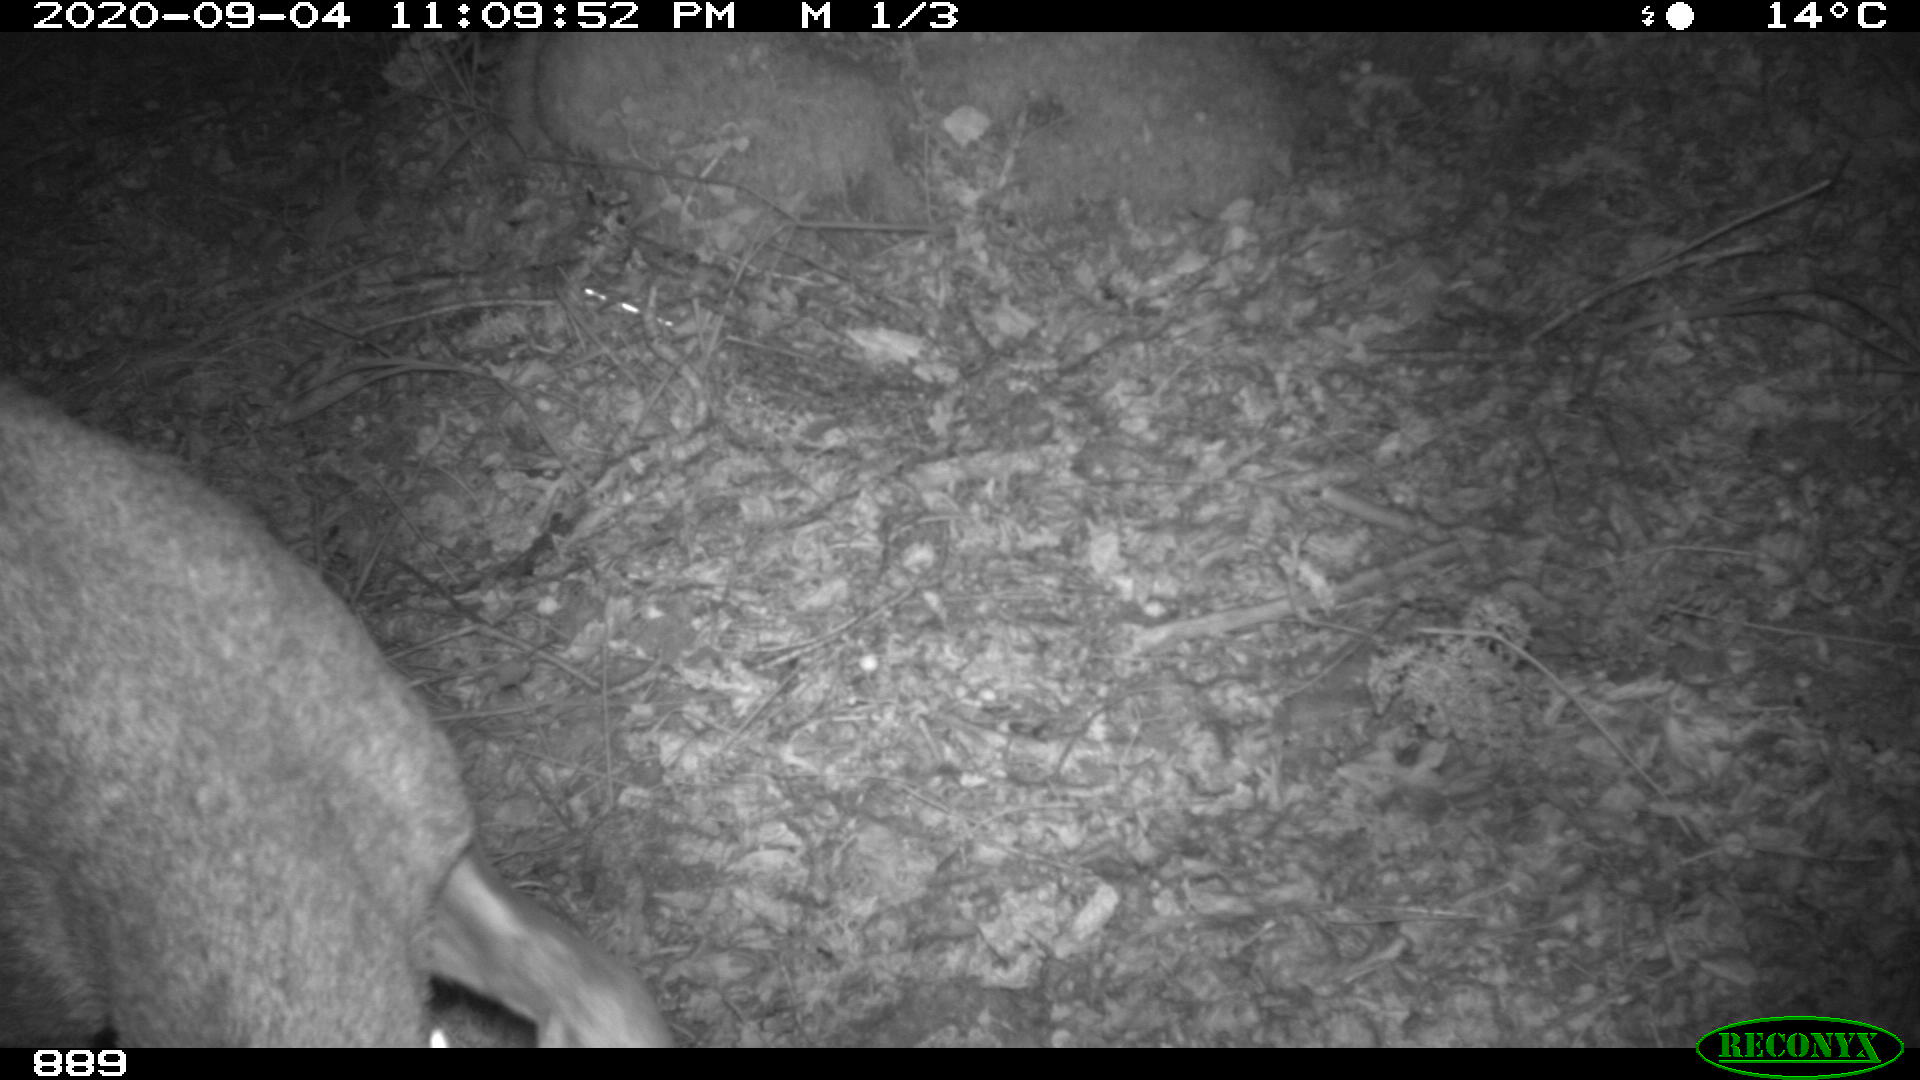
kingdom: Animalia
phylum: Chordata
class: Mammalia
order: Artiodactyla
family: Cervidae
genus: Capreolus
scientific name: Capreolus capreolus
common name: Western roe deer
